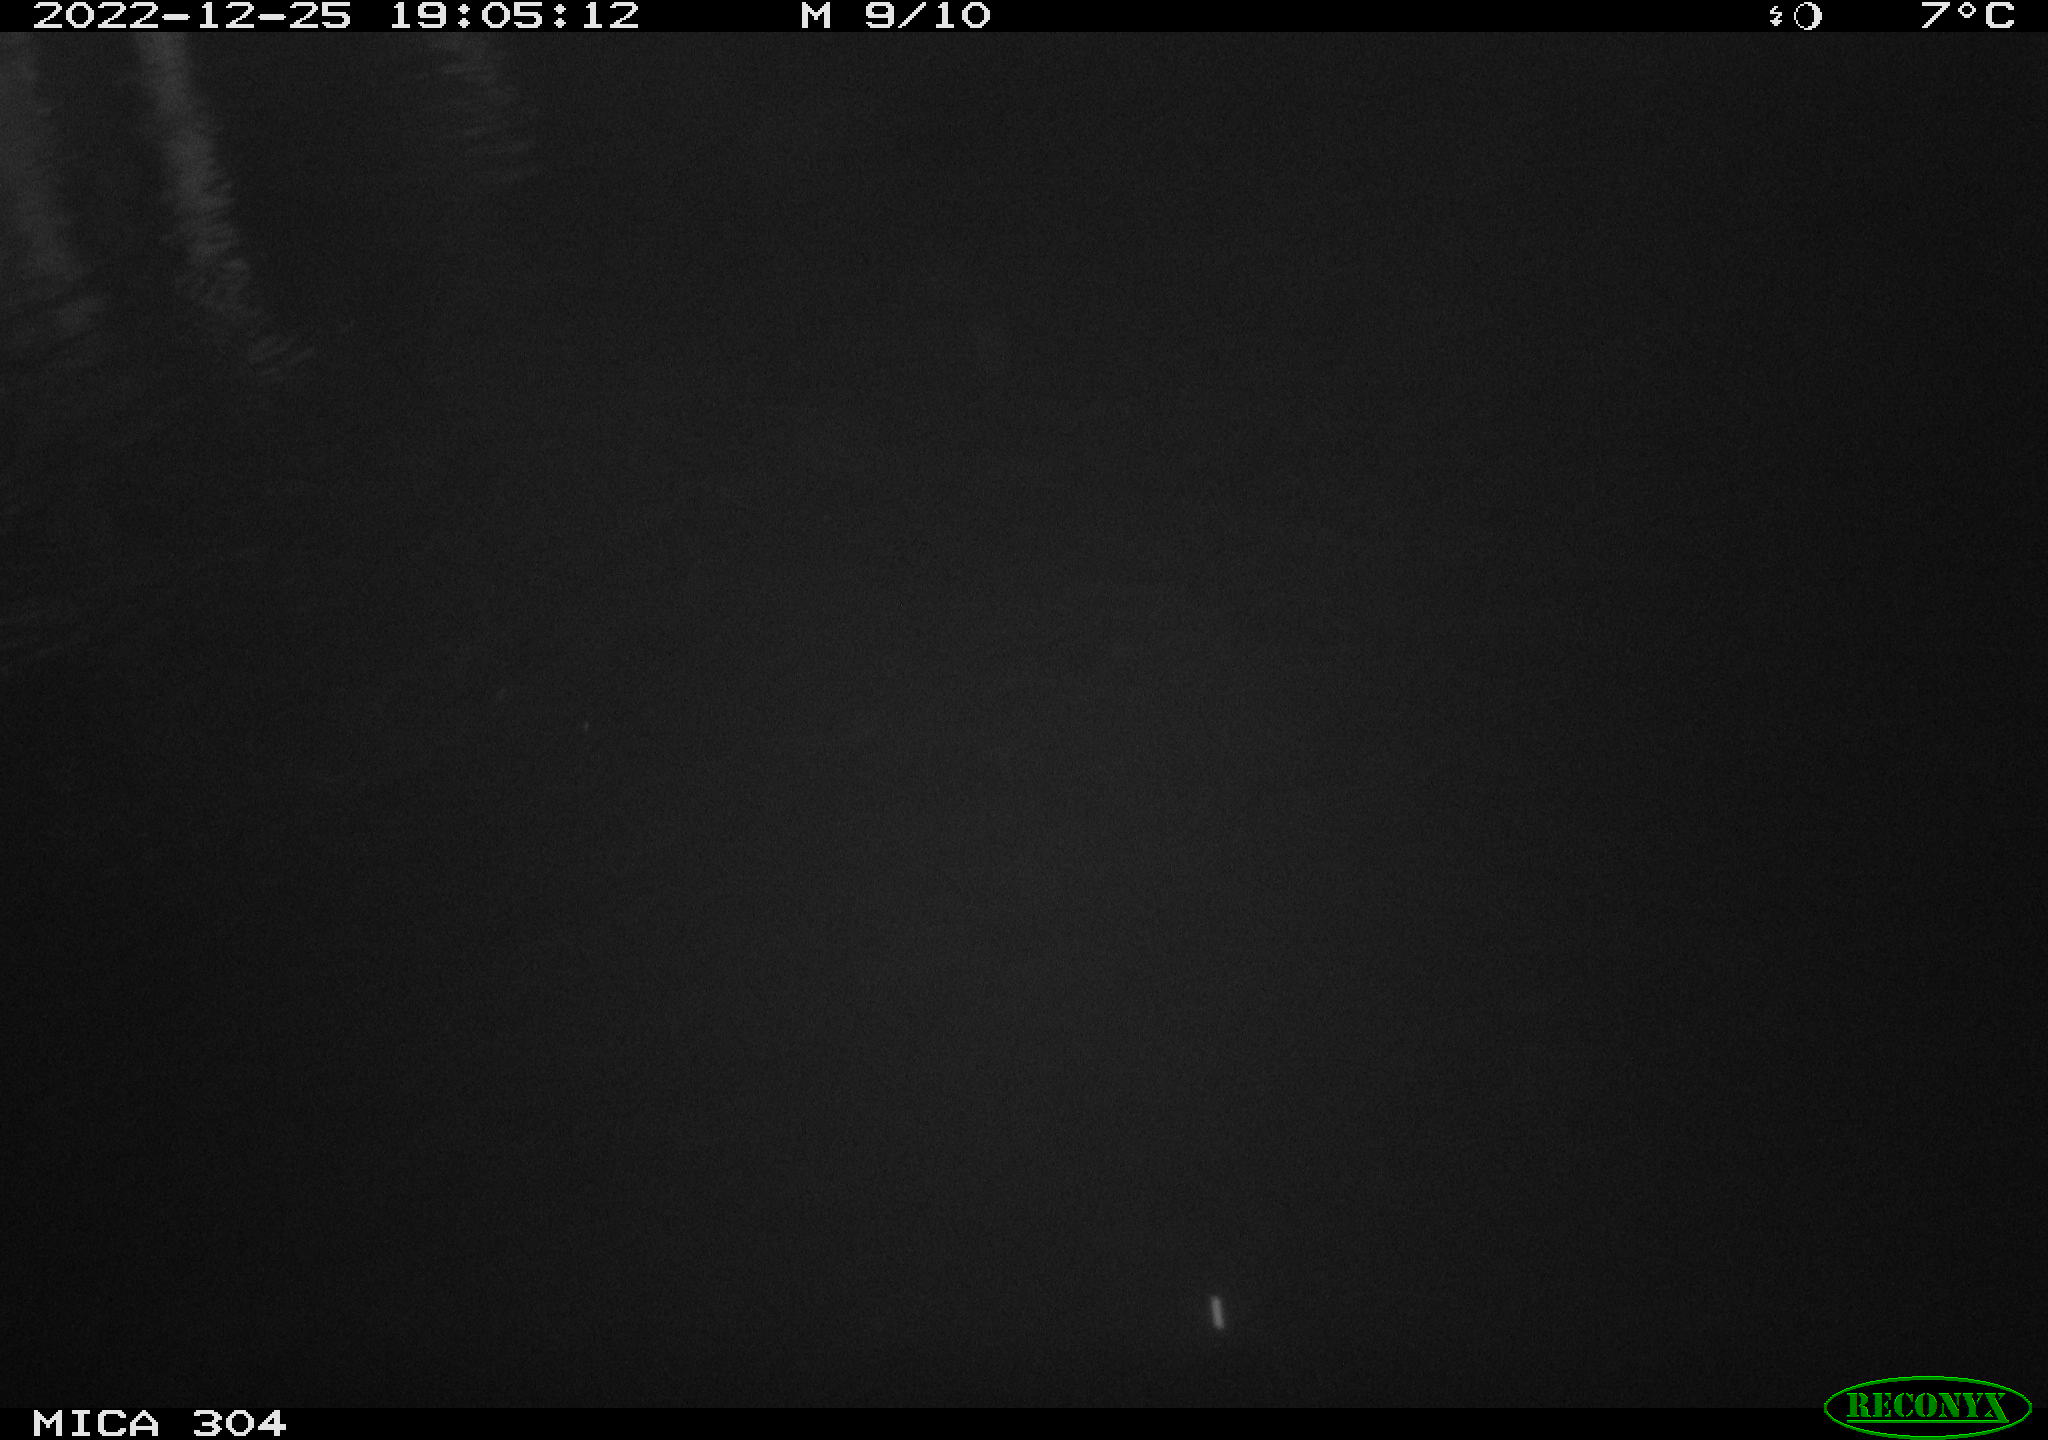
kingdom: Animalia
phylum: Chordata
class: Mammalia
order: Rodentia
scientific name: Rodentia
